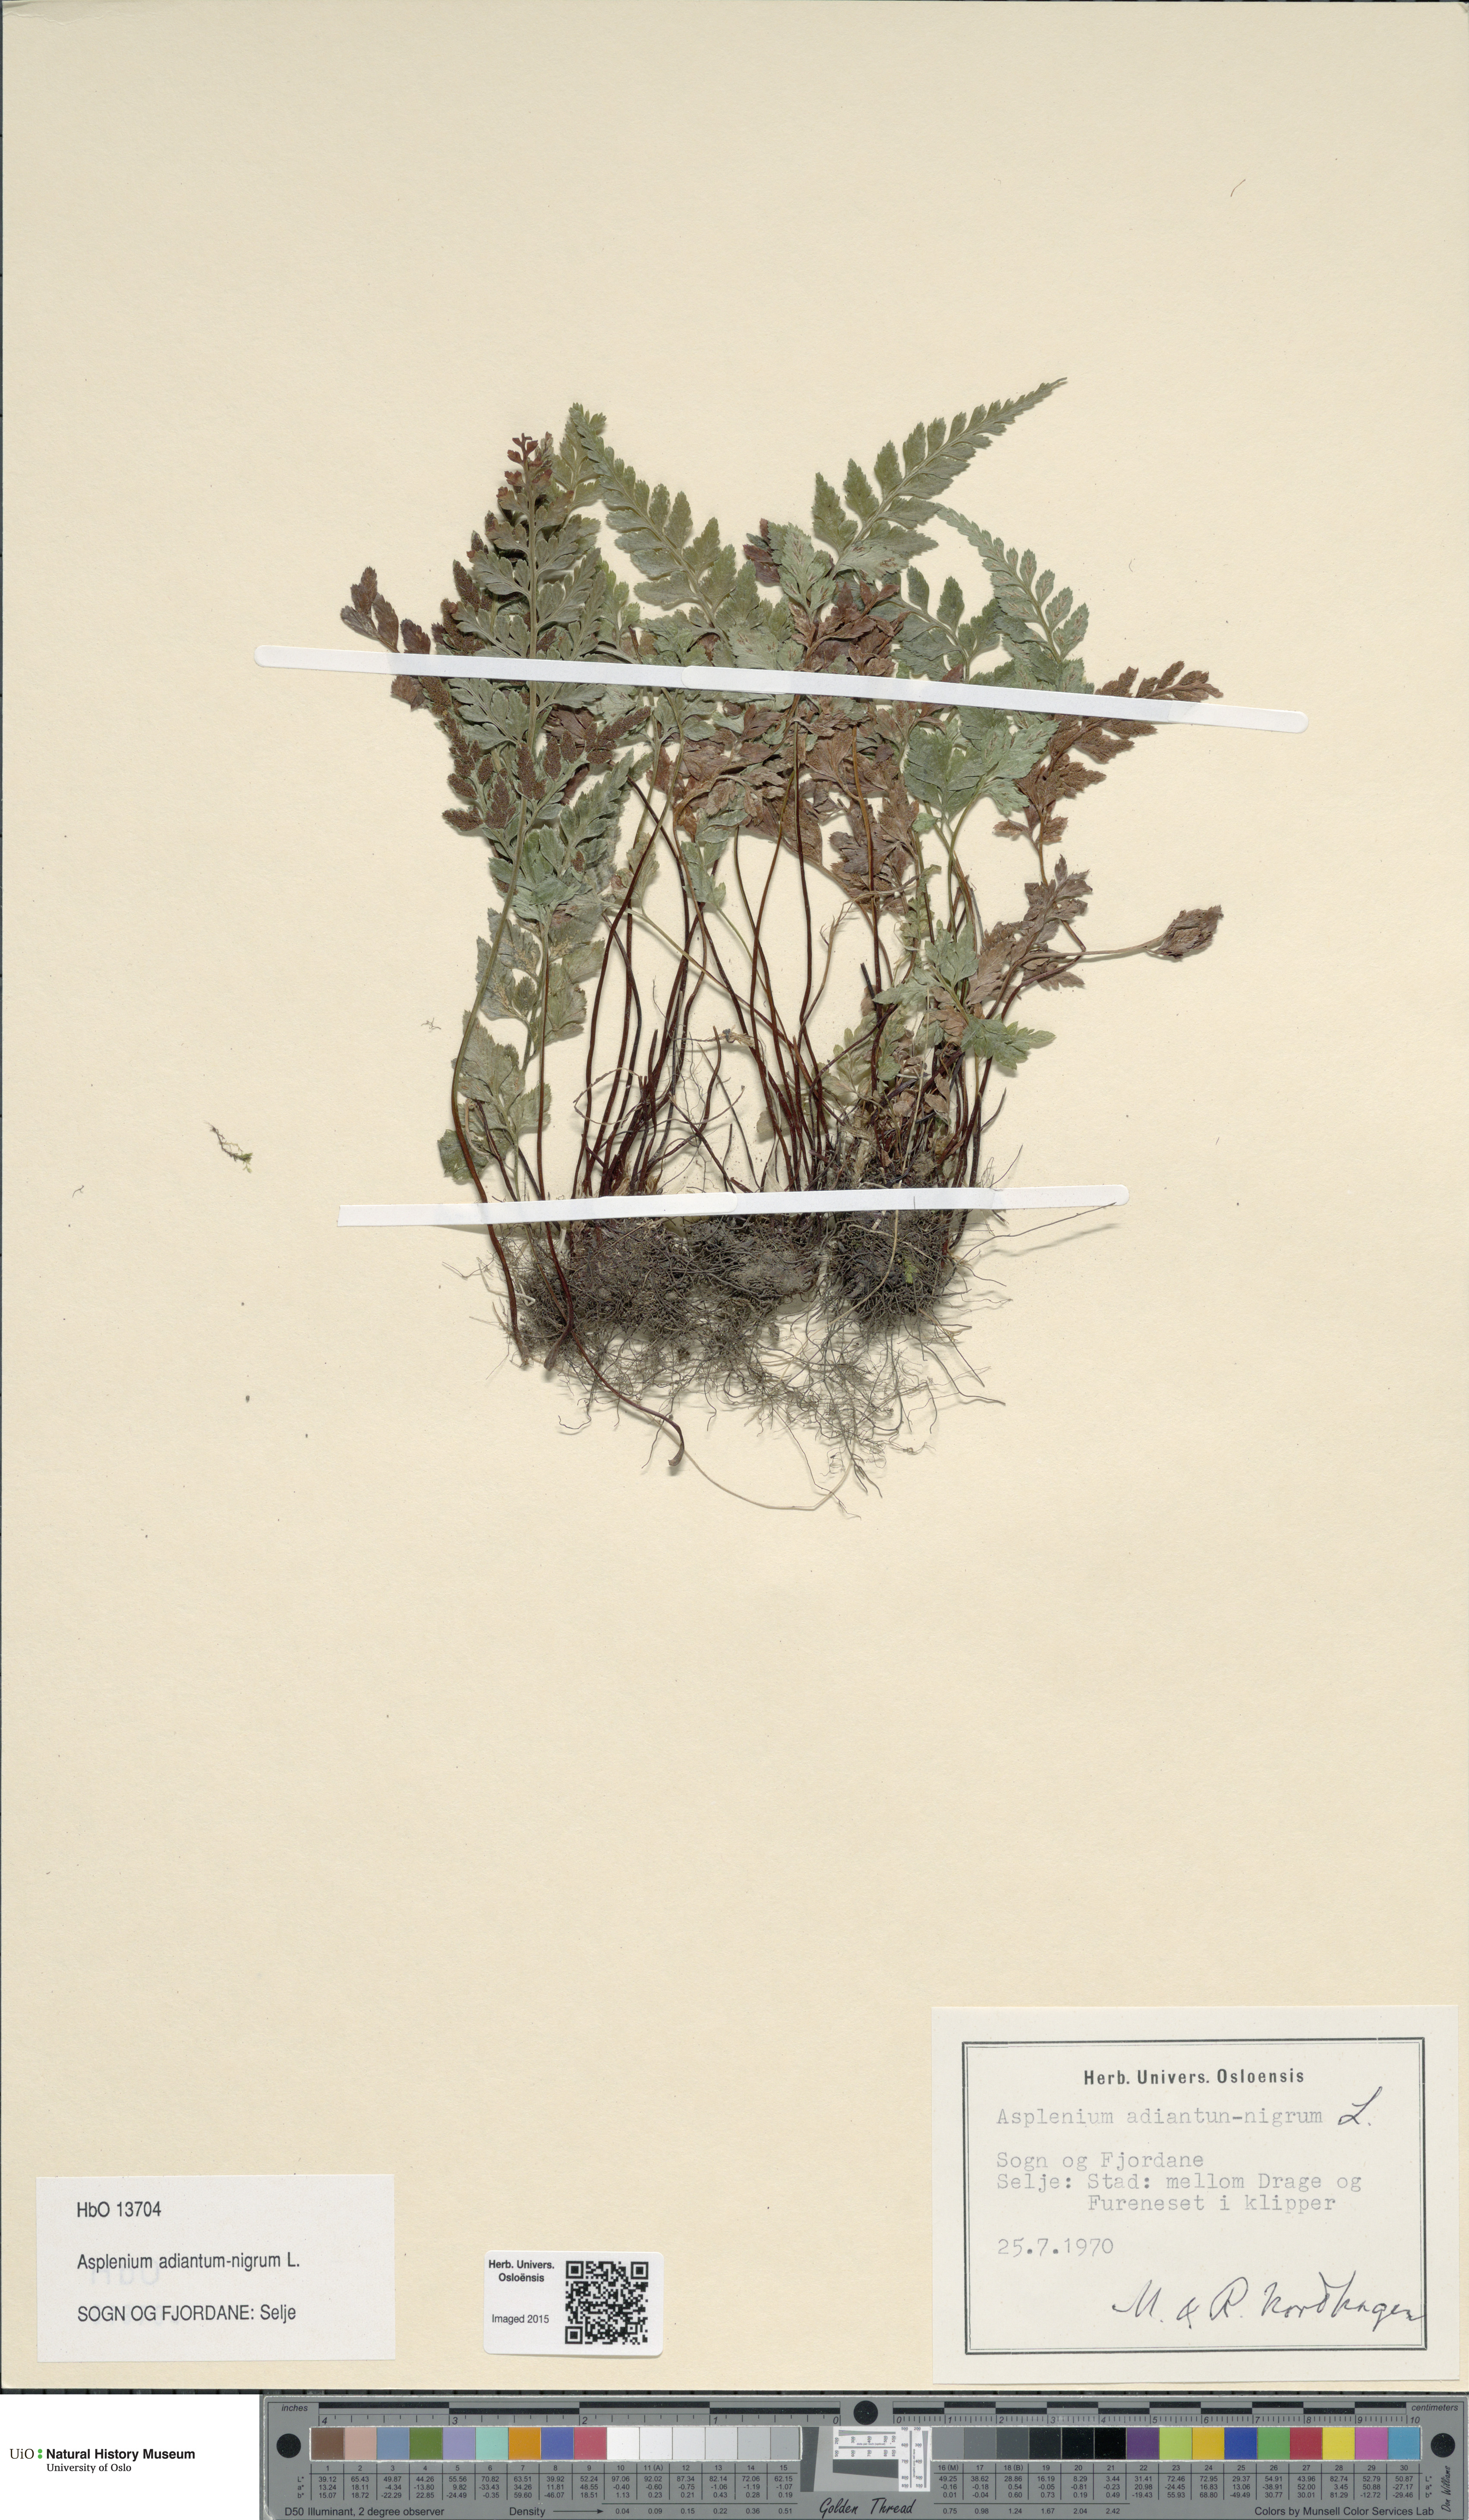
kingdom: Plantae
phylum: Tracheophyta
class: Polypodiopsida
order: Polypodiales
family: Aspleniaceae
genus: Asplenium
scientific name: Asplenium adiantum-nigrum
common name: Black spleenwort
